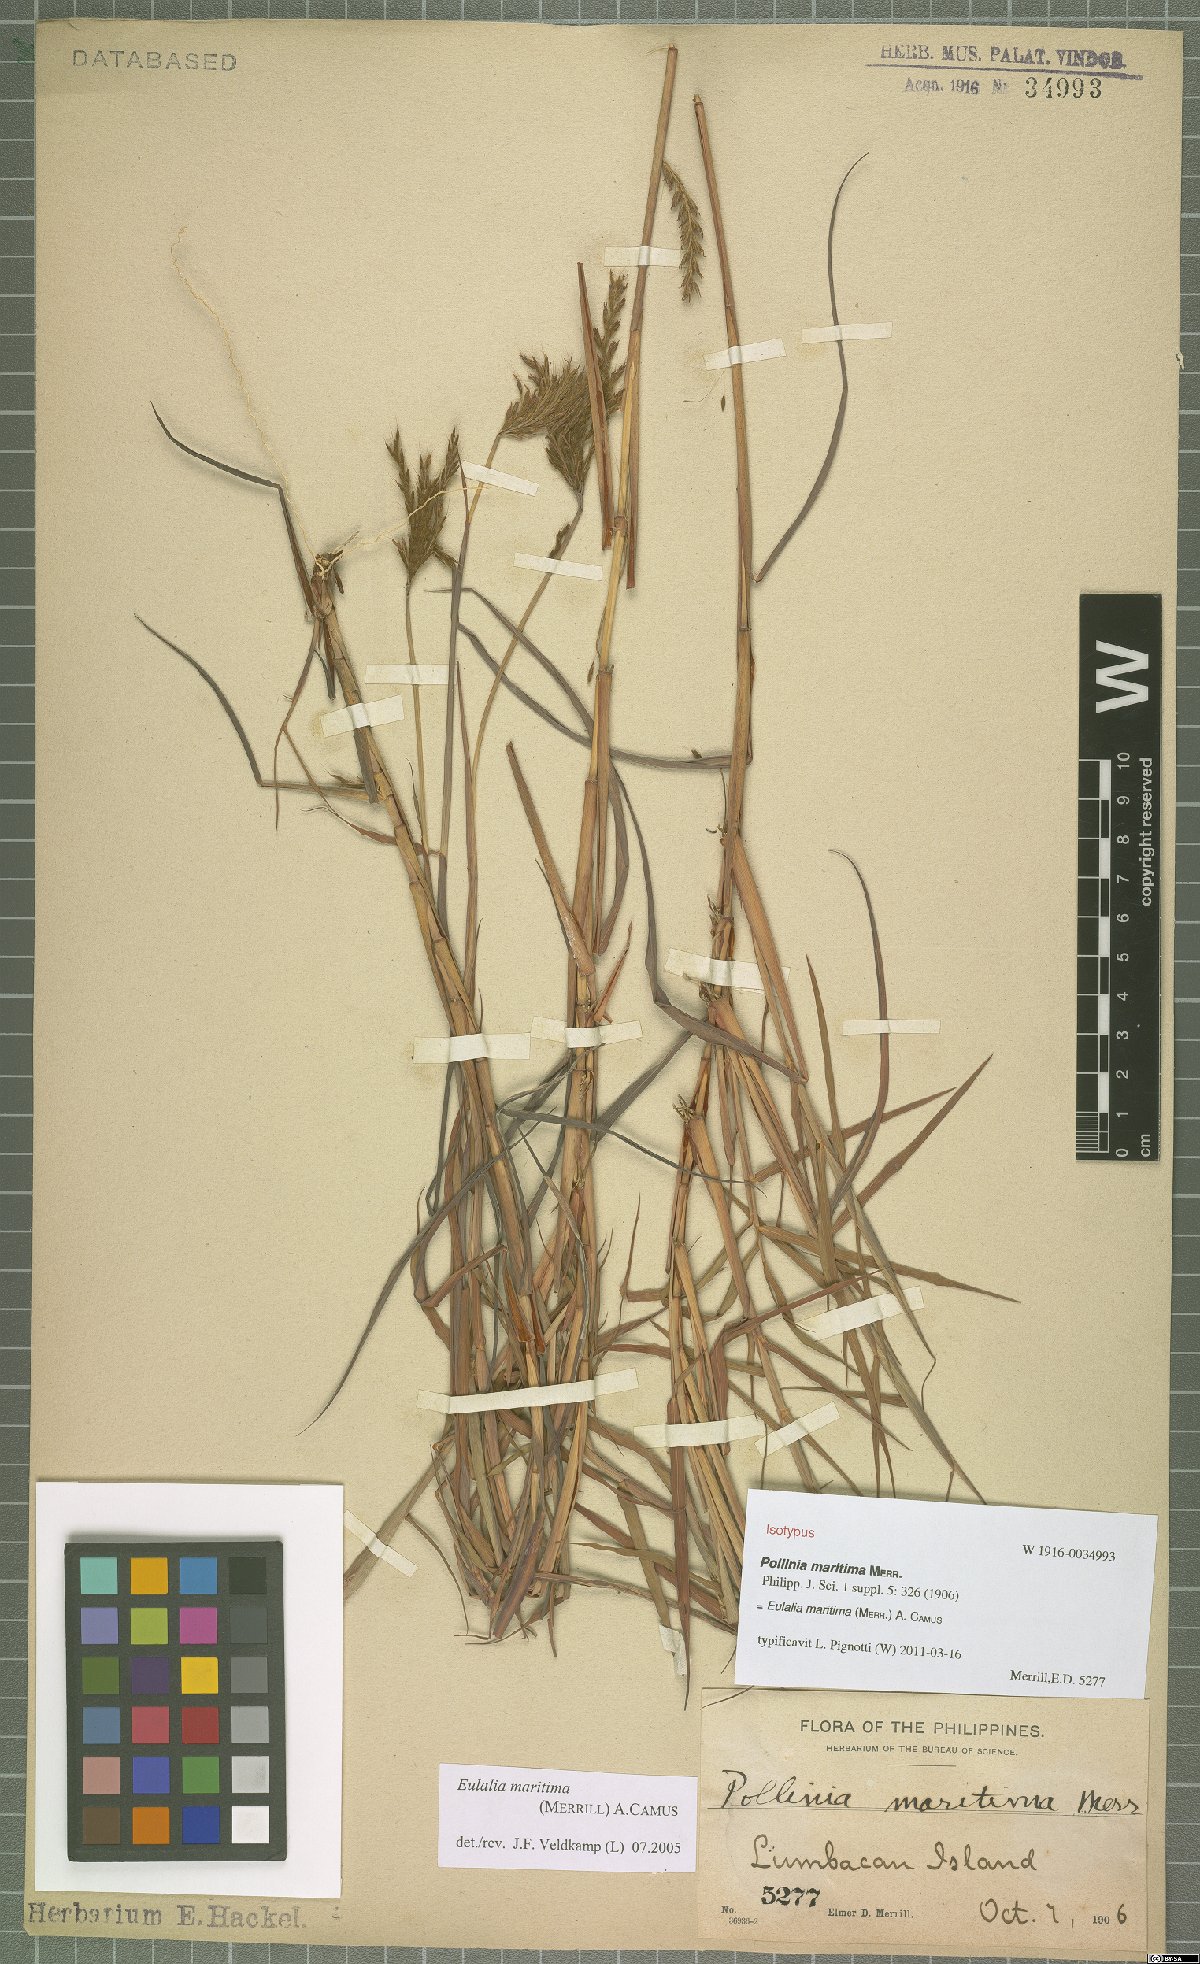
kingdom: Plantae
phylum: Tracheophyta
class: Liliopsida
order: Poales
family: Poaceae
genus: Eulalia
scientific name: Eulalia maritima
